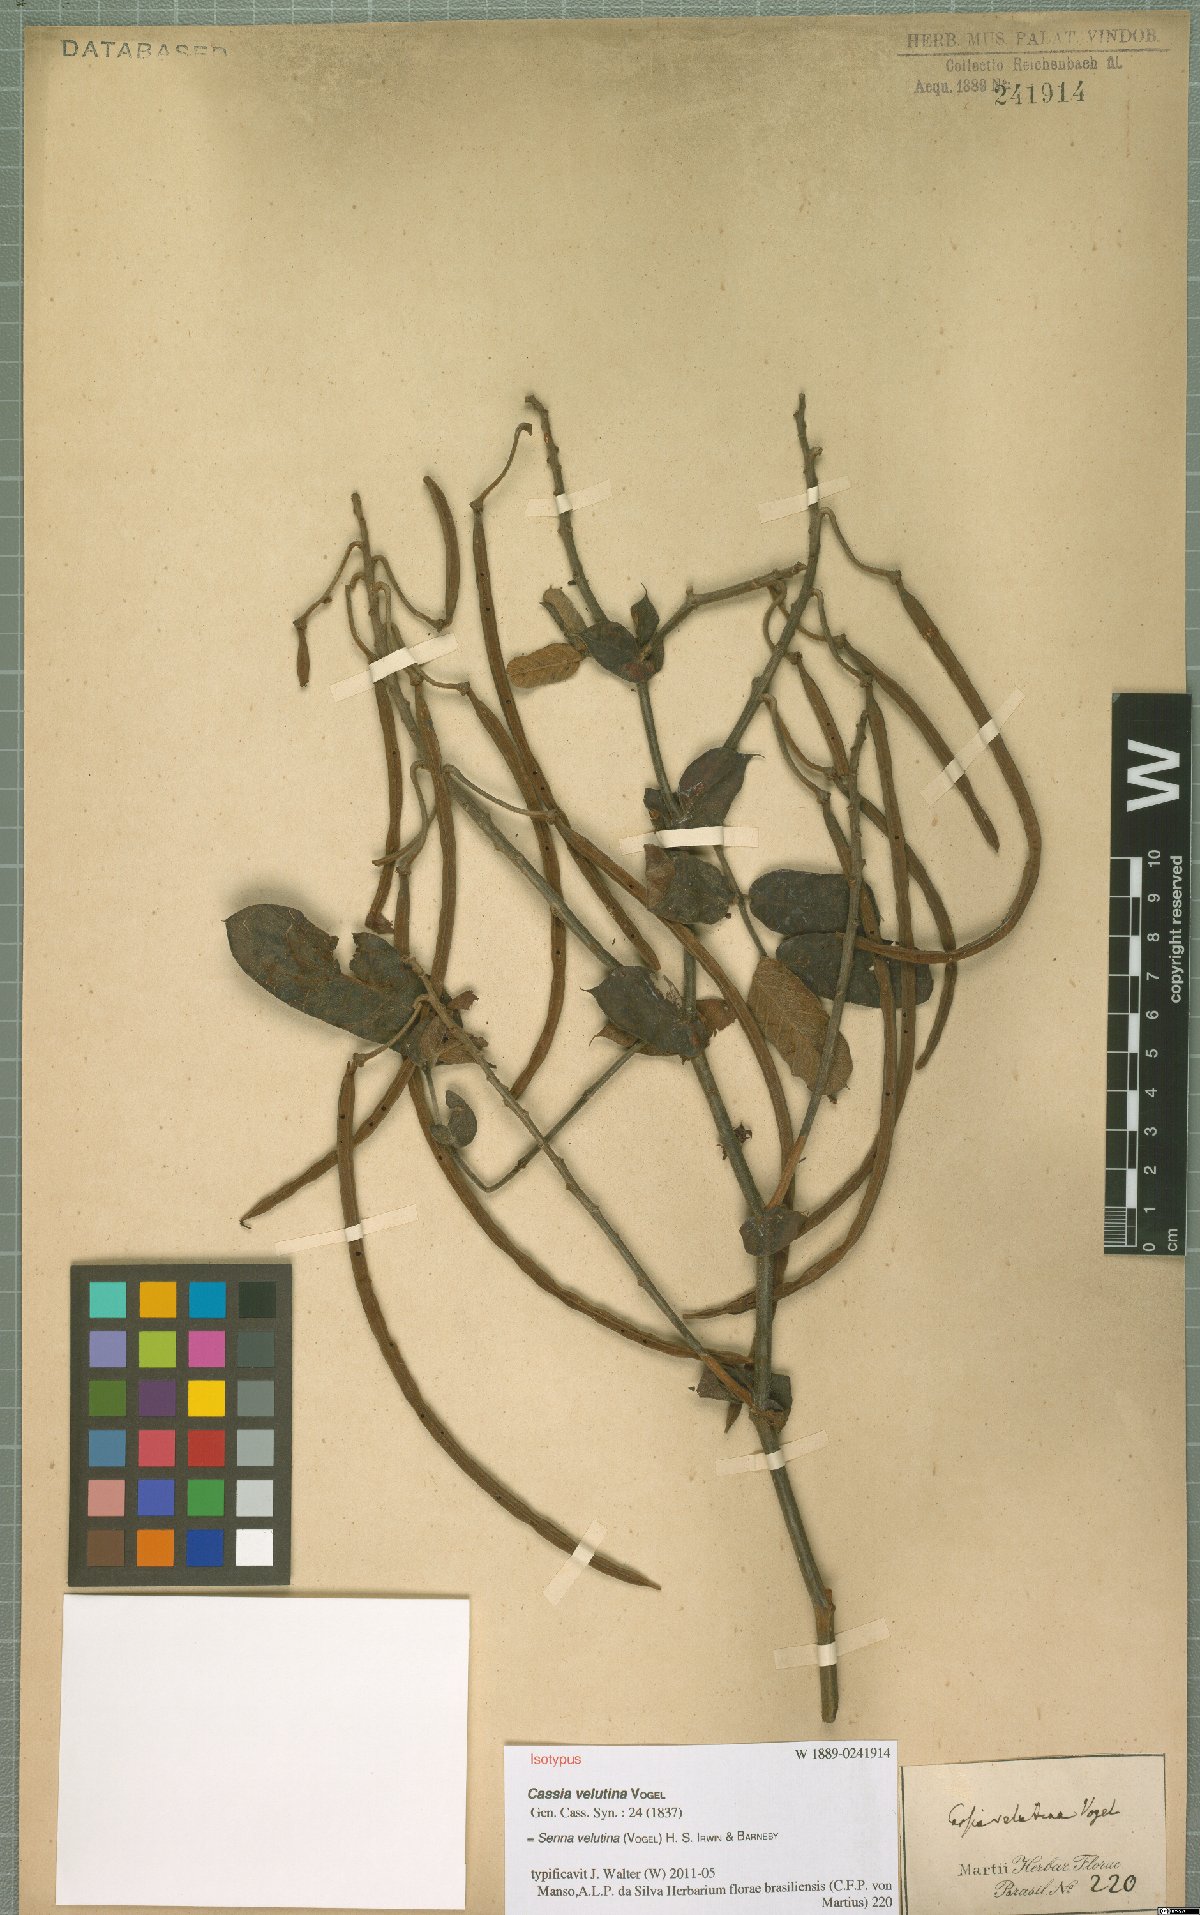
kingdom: Plantae
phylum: Tracheophyta
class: Magnoliopsida
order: Fabales
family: Fabaceae
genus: Senna
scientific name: Senna velutina
